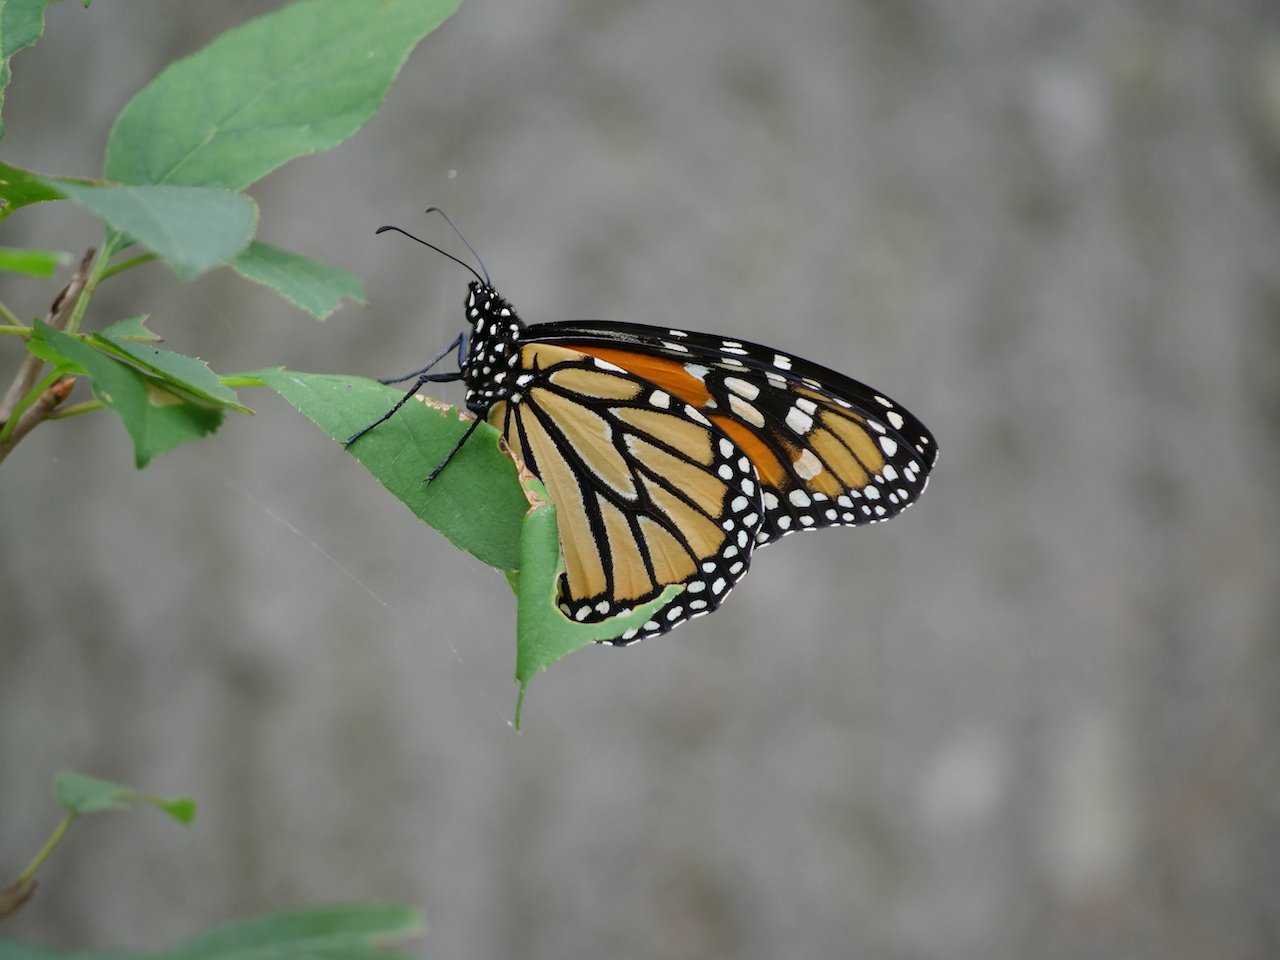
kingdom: Animalia
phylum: Arthropoda
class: Insecta
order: Lepidoptera
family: Nymphalidae
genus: Danaus
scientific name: Danaus plexippus
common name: Monarch
